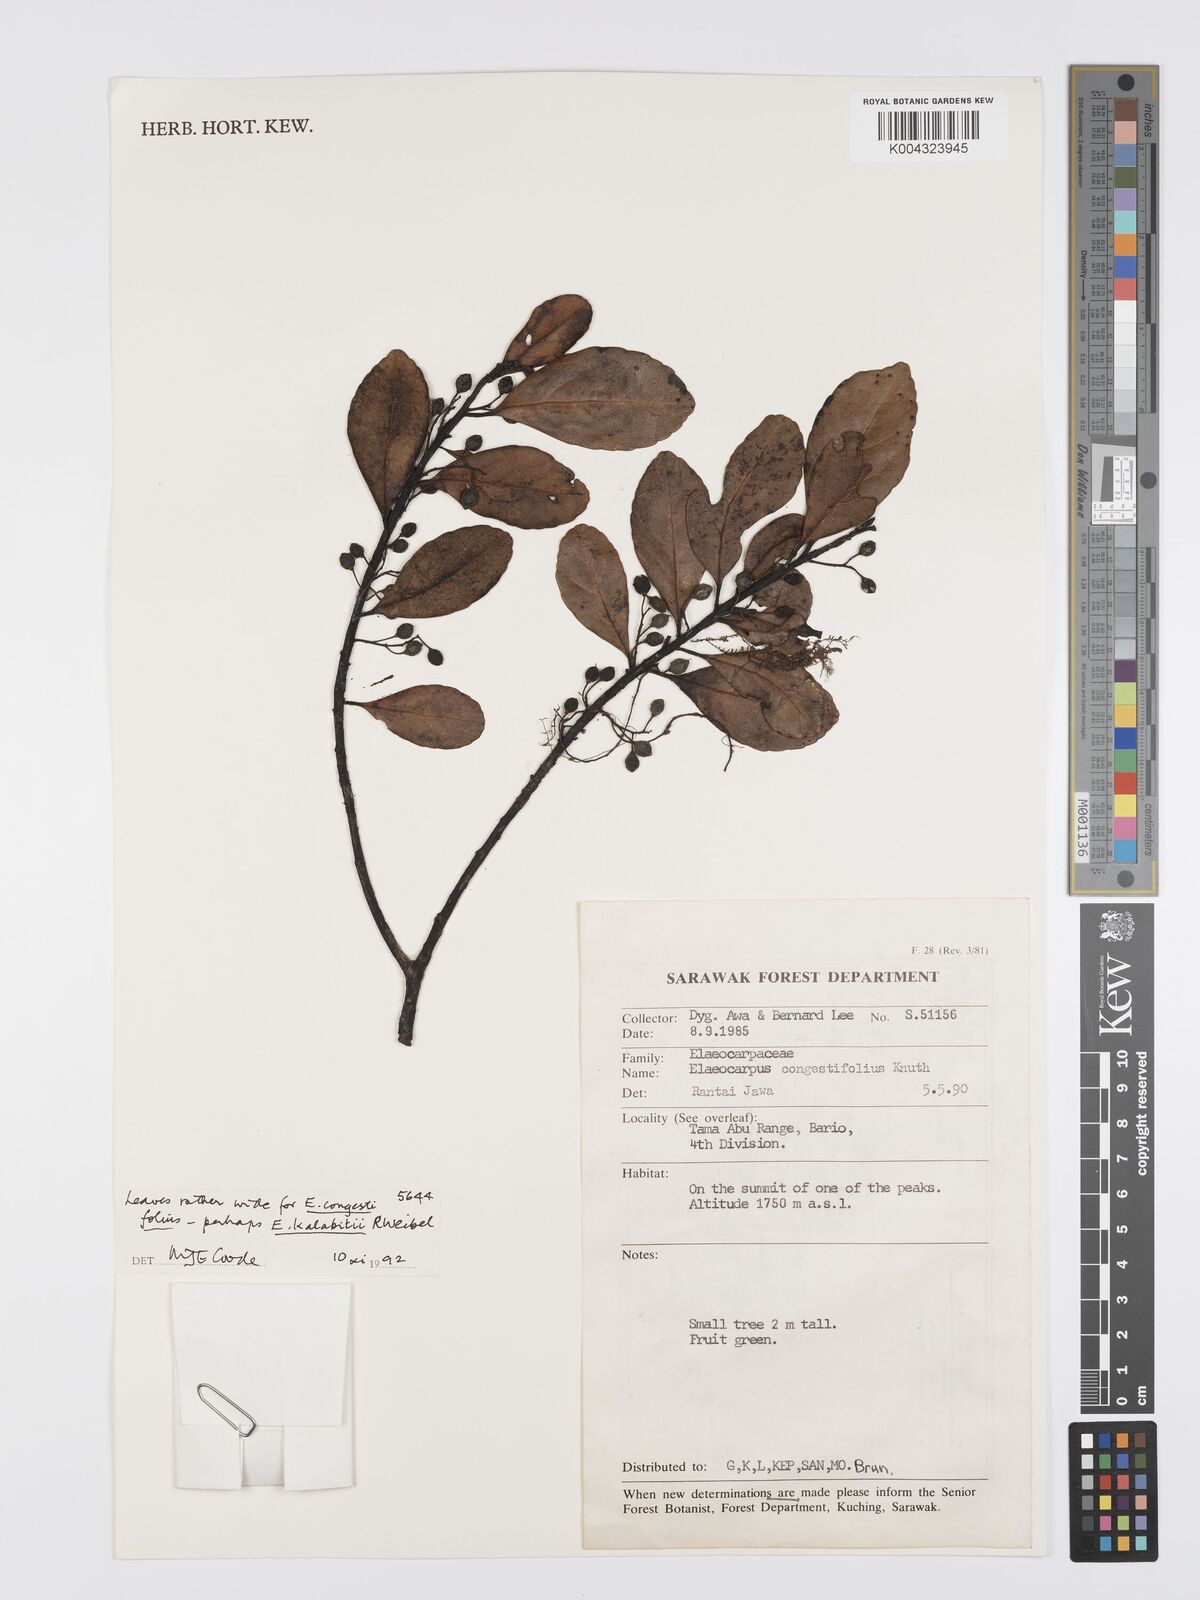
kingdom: Plantae
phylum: Tracheophyta
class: Magnoliopsida
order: Oxalidales
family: Elaeocarpaceae
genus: Elaeocarpus
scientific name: Elaeocarpus kalabitii
